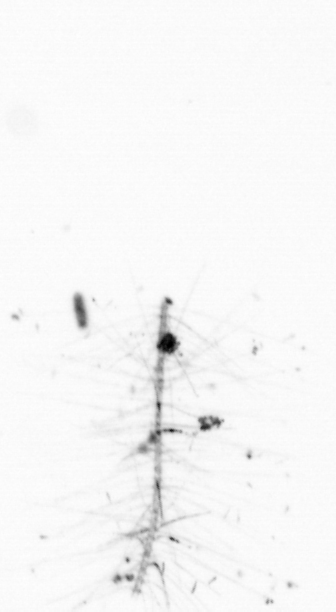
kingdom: Chromista
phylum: Ochrophyta
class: Bacillariophyceae
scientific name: Bacillariophyceae
